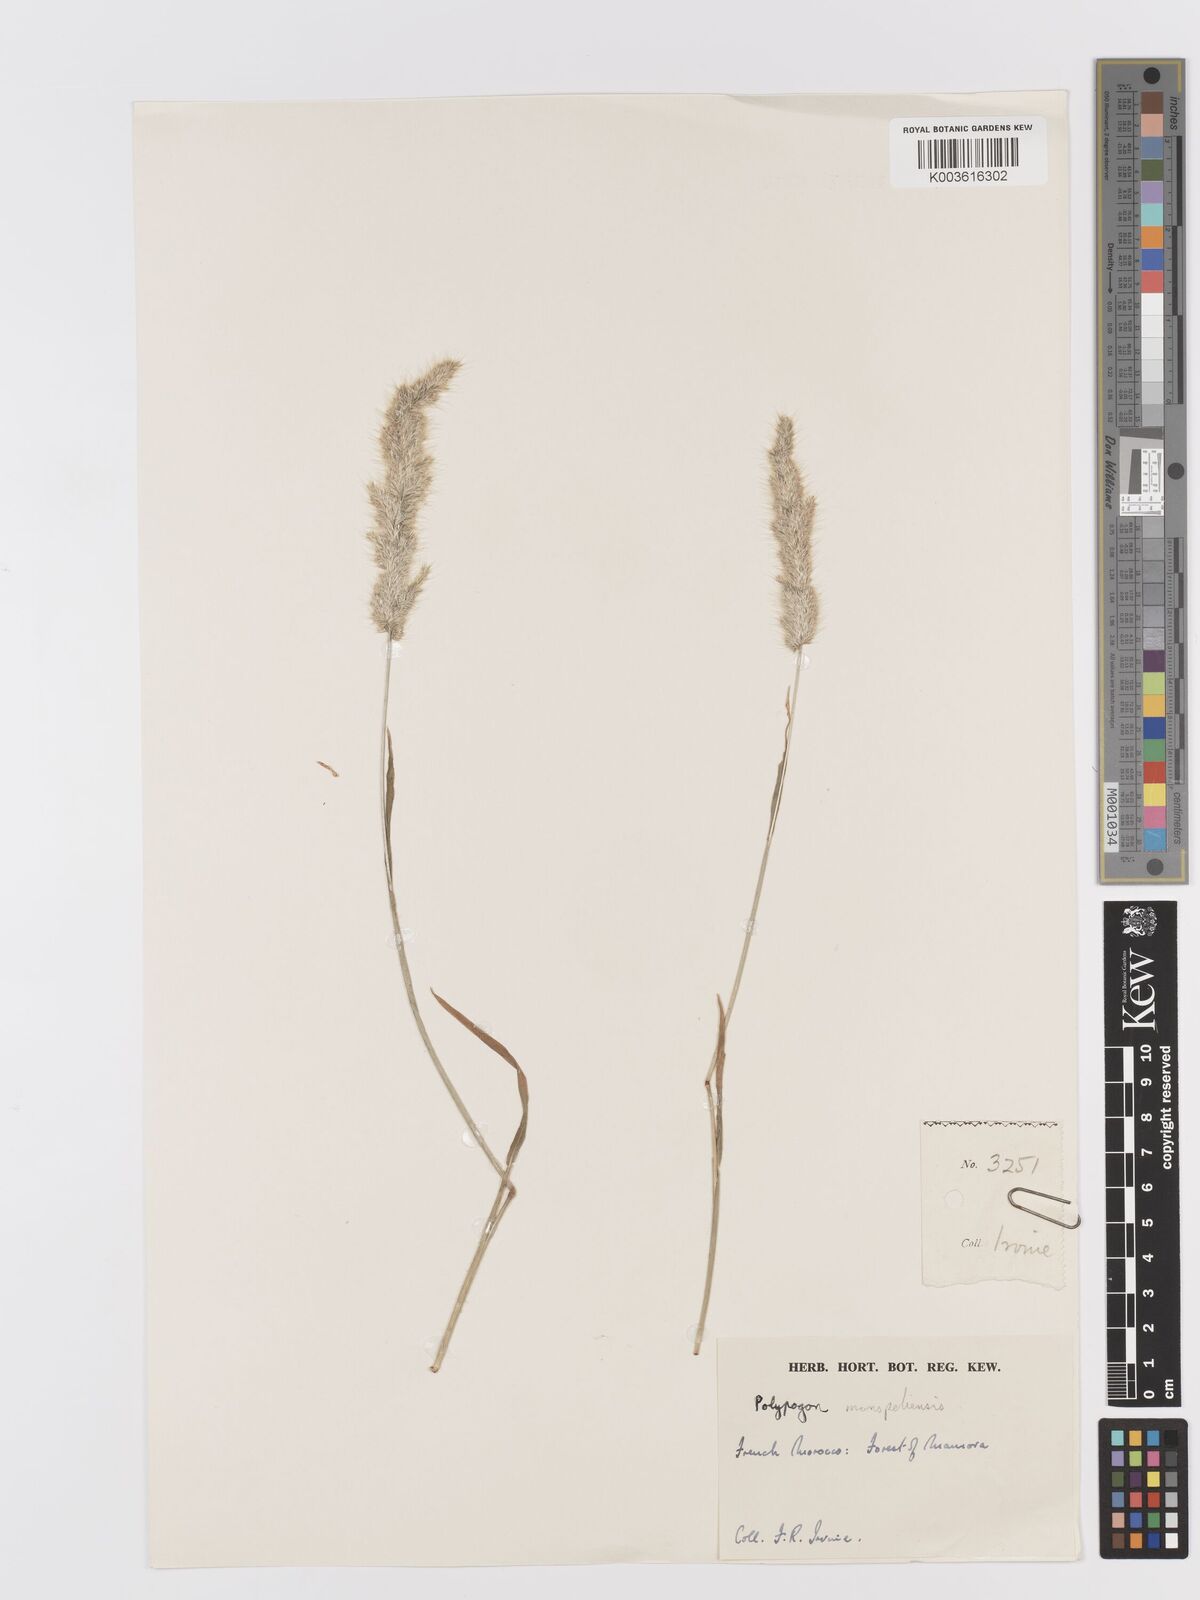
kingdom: Plantae
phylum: Tracheophyta
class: Liliopsida
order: Poales
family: Poaceae
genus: Trisetaria
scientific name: Trisetaria panicea
